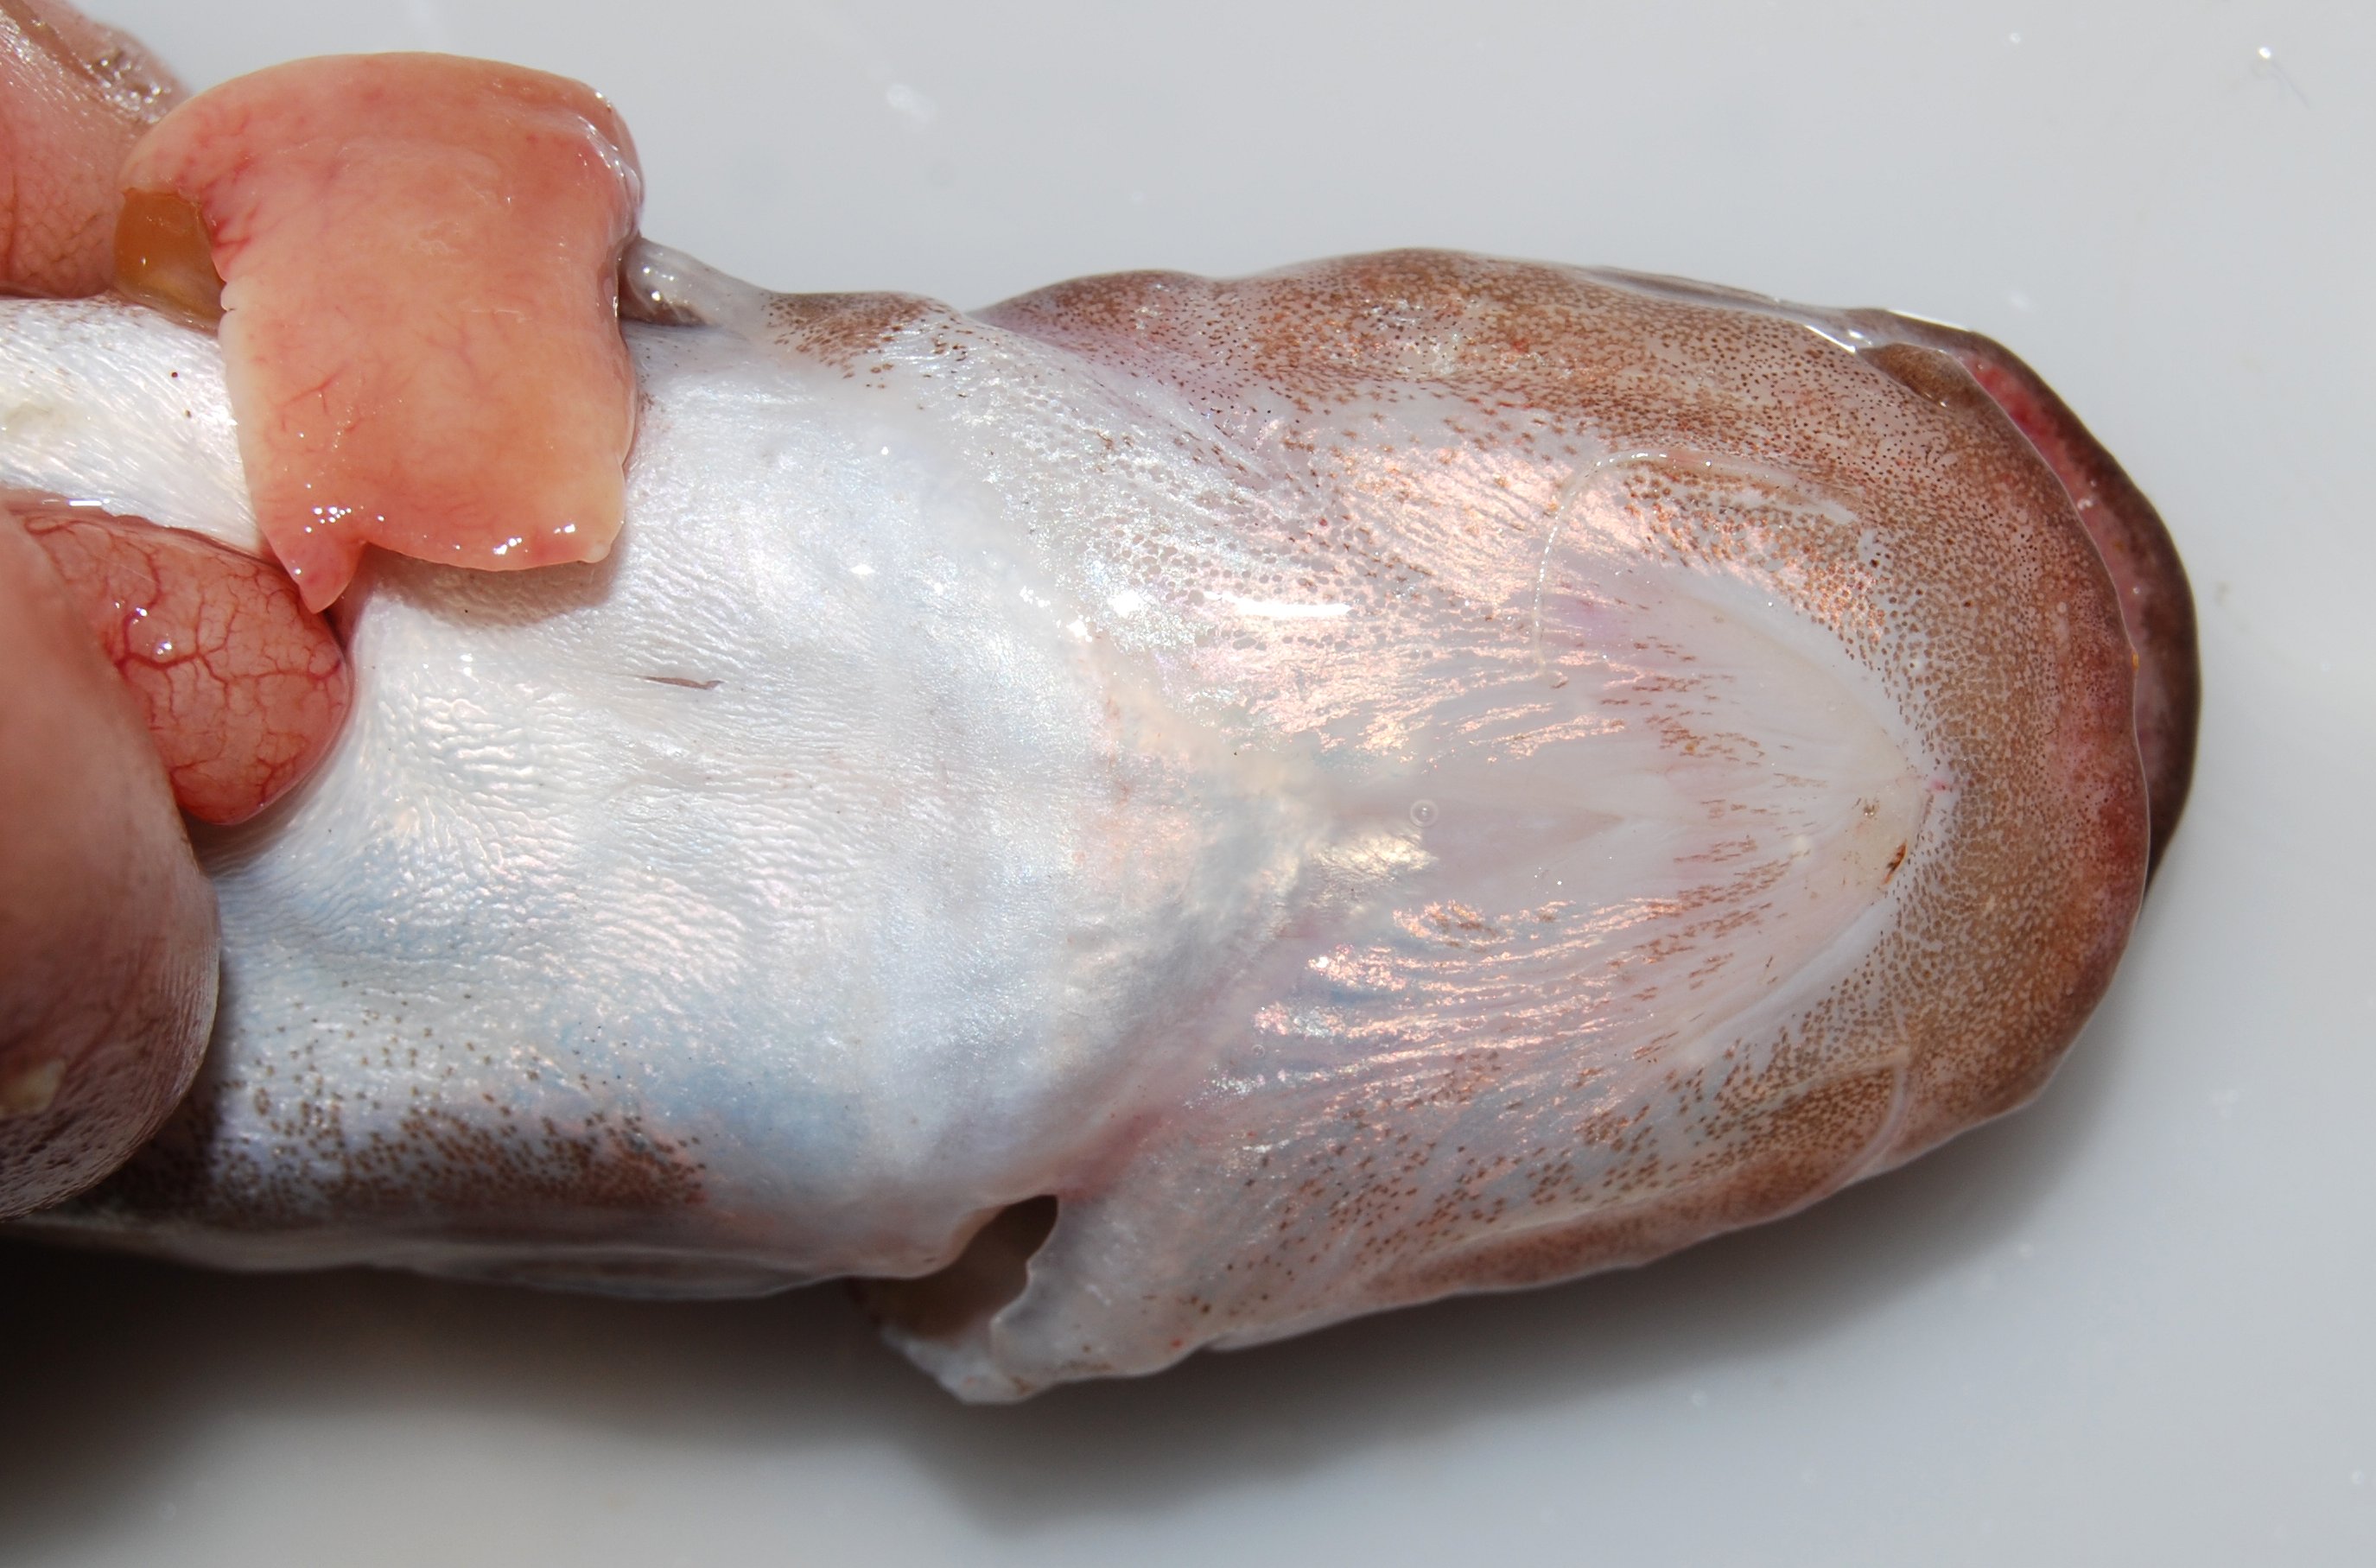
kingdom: Animalia
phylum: Chordata
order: Siluriformes
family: Claroteidae
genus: Bathybagrus
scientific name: Bathybagrus tetranema
